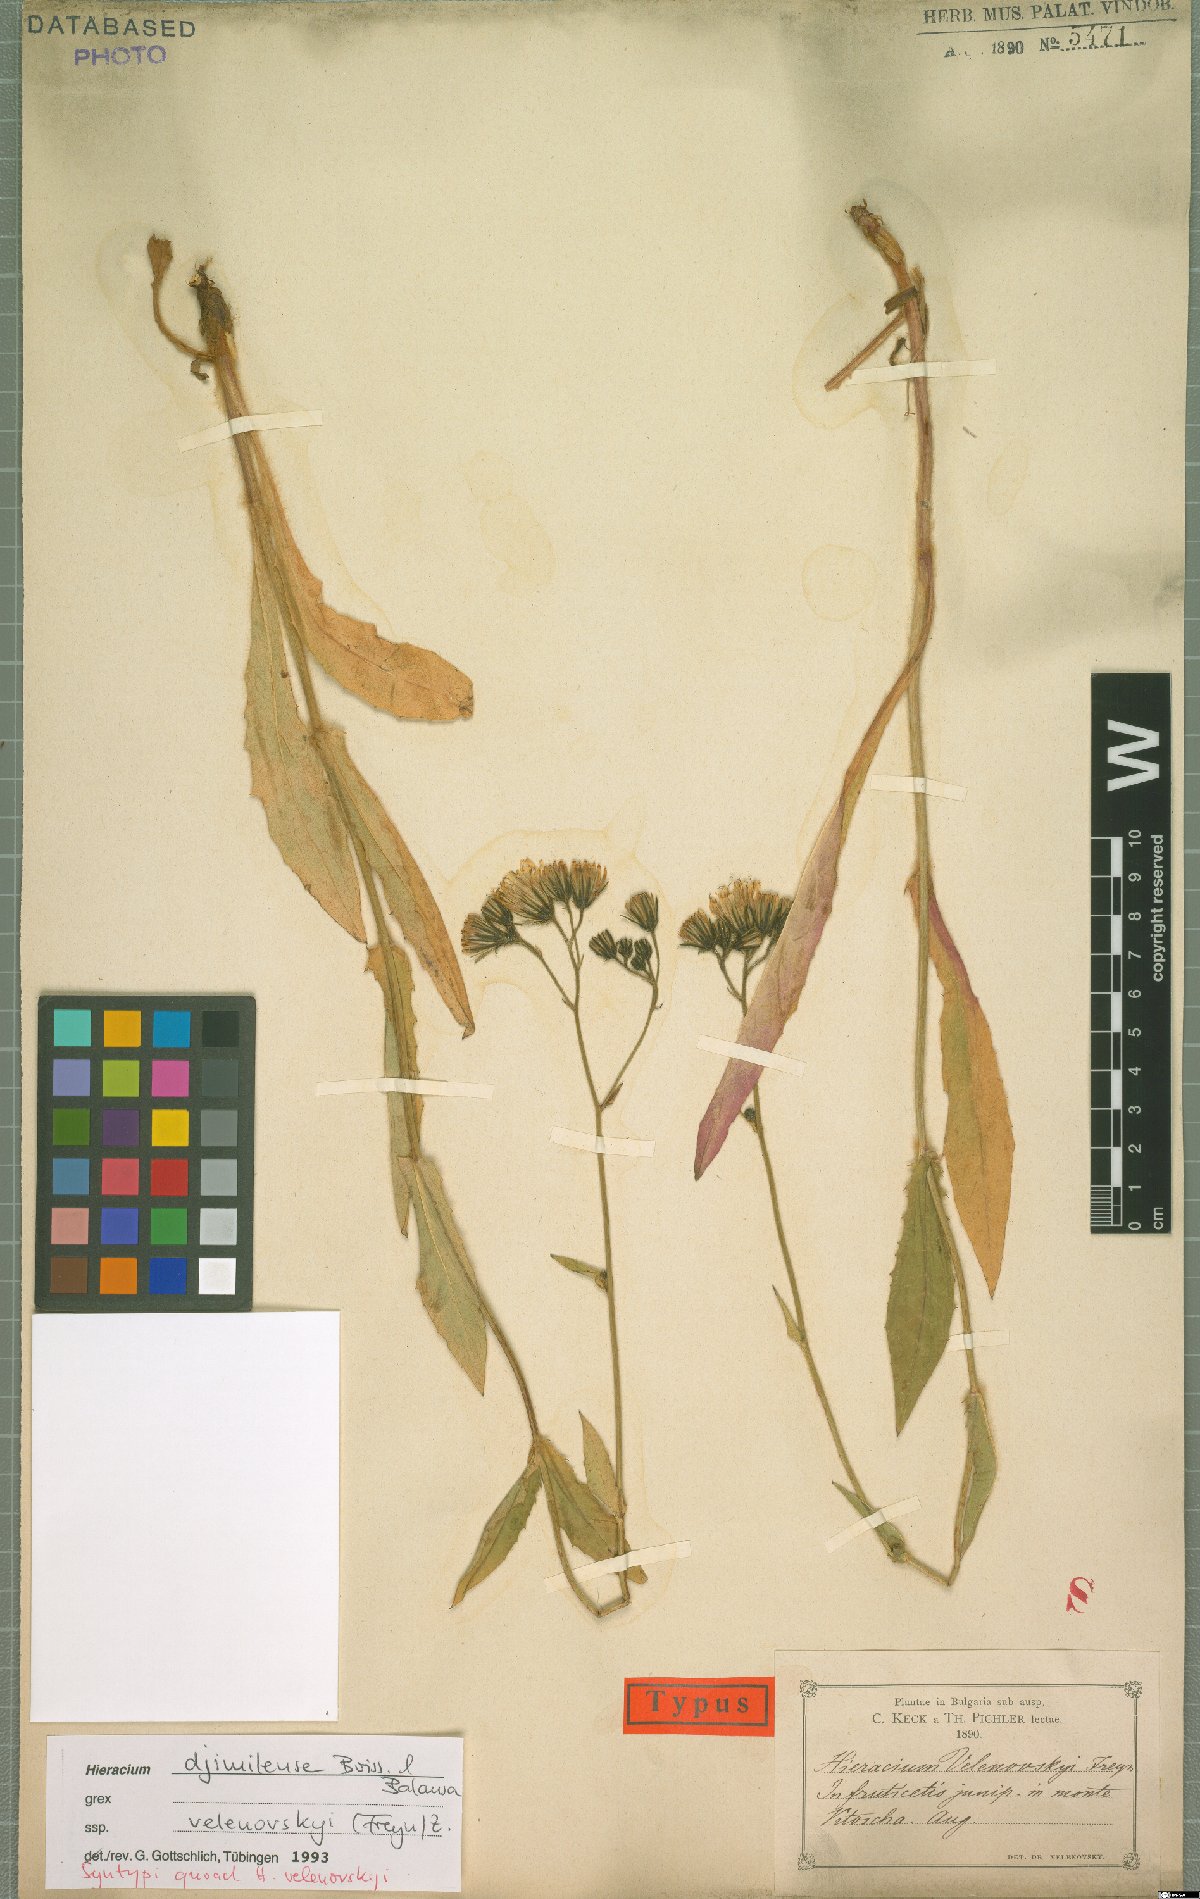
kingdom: Plantae
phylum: Tracheophyta
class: Magnoliopsida
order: Asterales
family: Asteraceae
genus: Hieracium
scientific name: Hieracium djimilense
